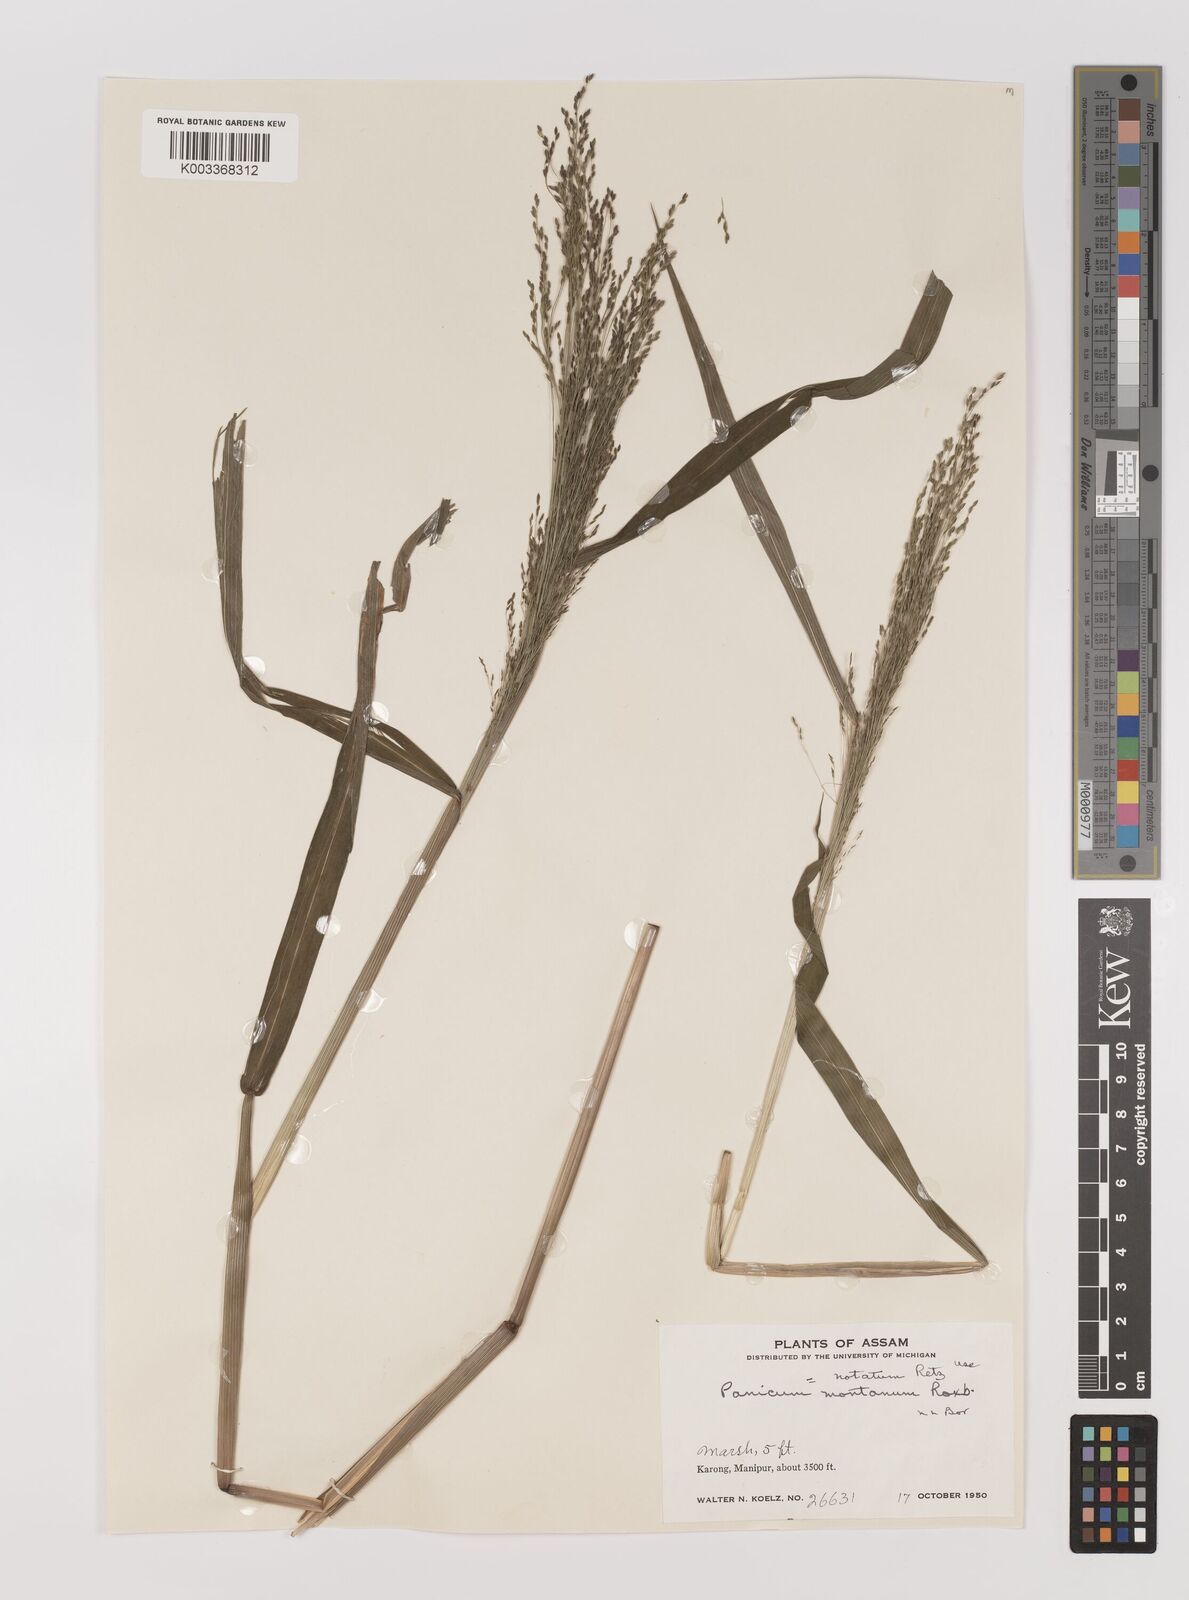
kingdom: Plantae
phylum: Tracheophyta
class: Liliopsida
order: Poales
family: Poaceae
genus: Panicum
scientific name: Panicum notatum
